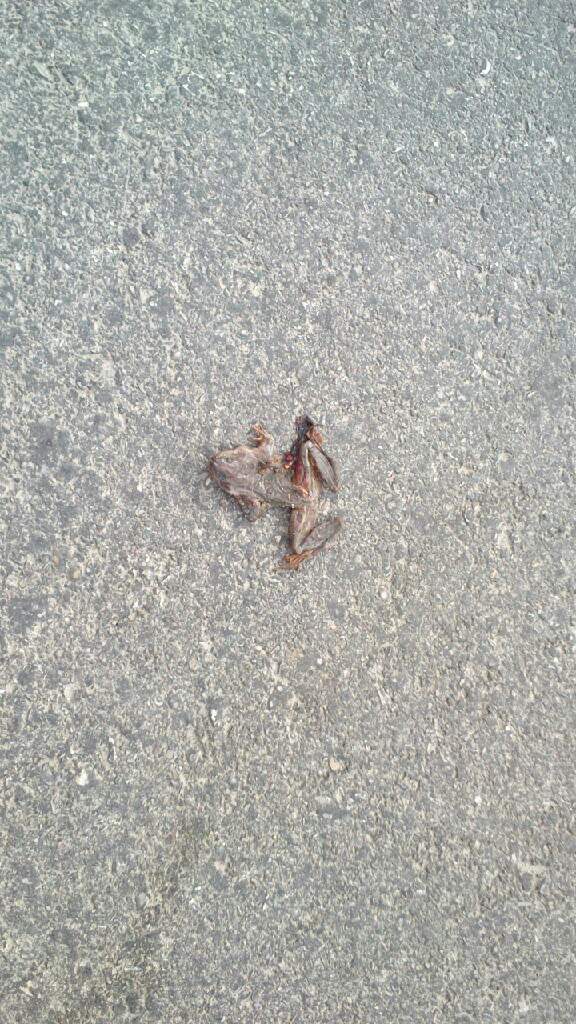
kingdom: Animalia
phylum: Chordata
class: Amphibia
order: Anura
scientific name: Anura
